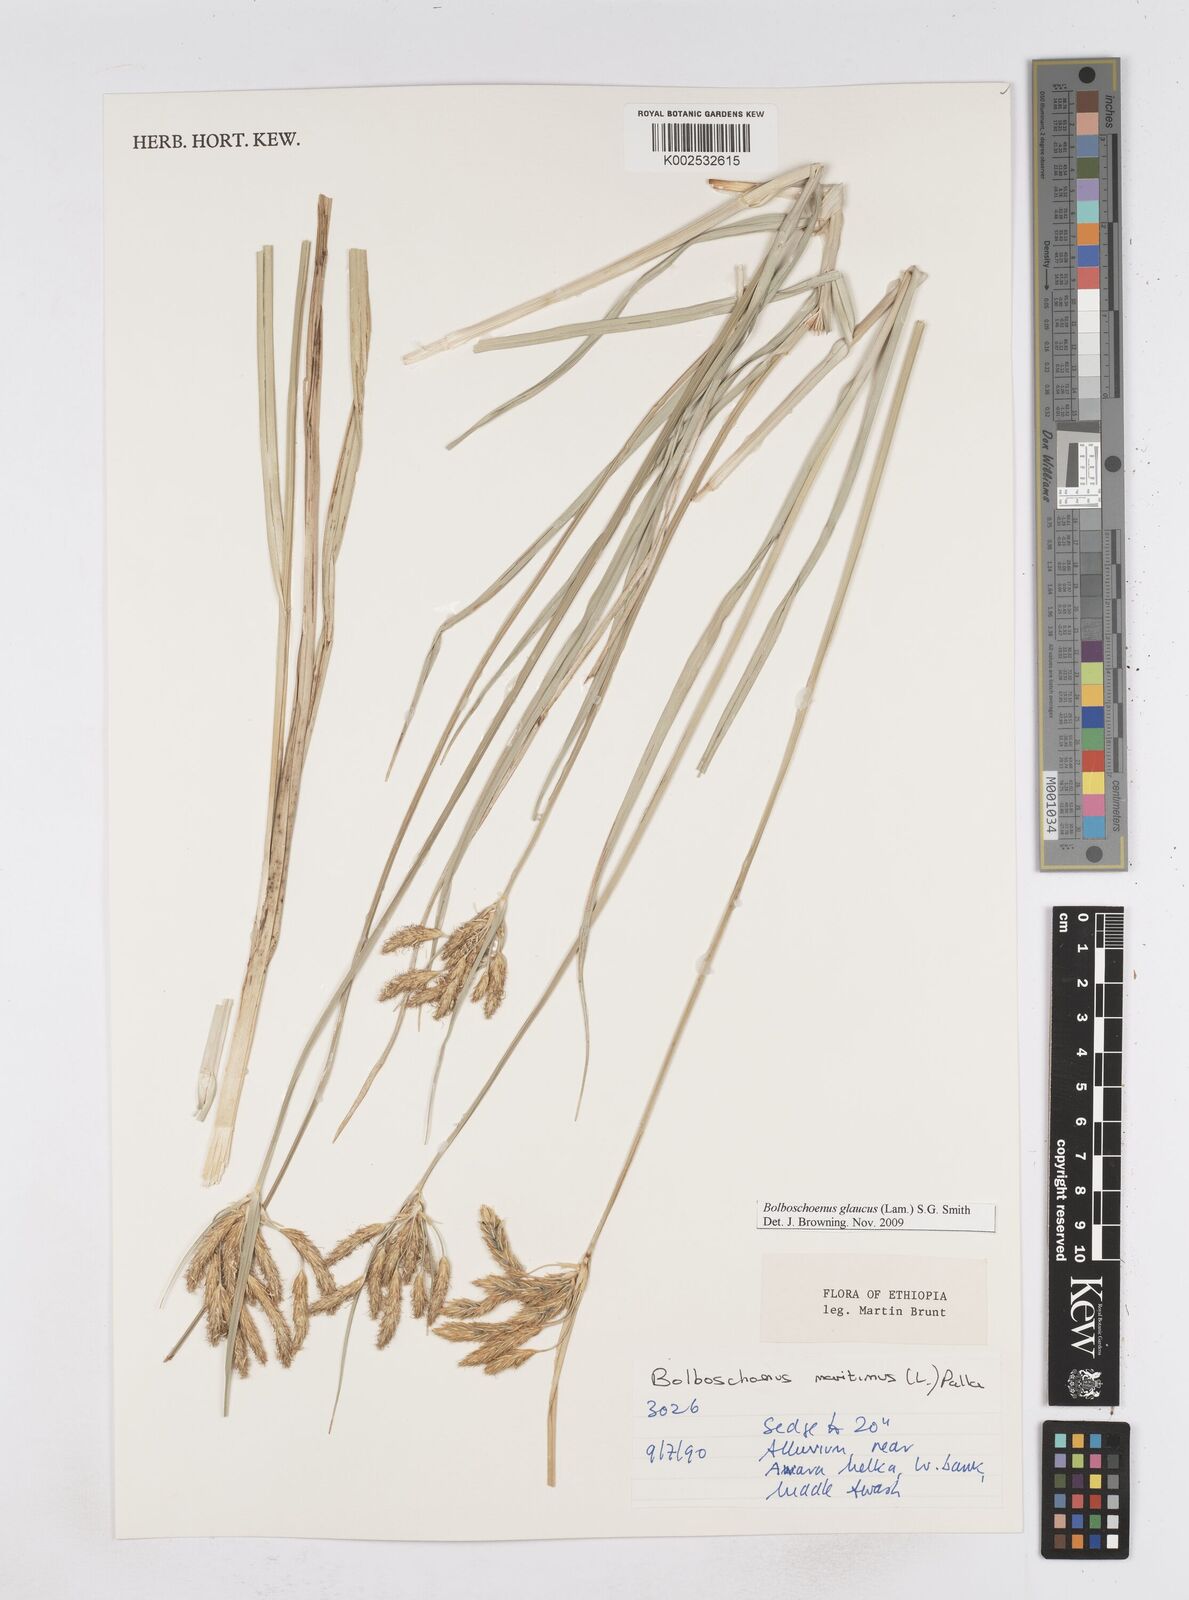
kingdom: Plantae
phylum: Tracheophyta
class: Liliopsida
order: Poales
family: Cyperaceae
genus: Bolboschoenus
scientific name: Bolboschoenus glaucus
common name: Tuberous bulrush
